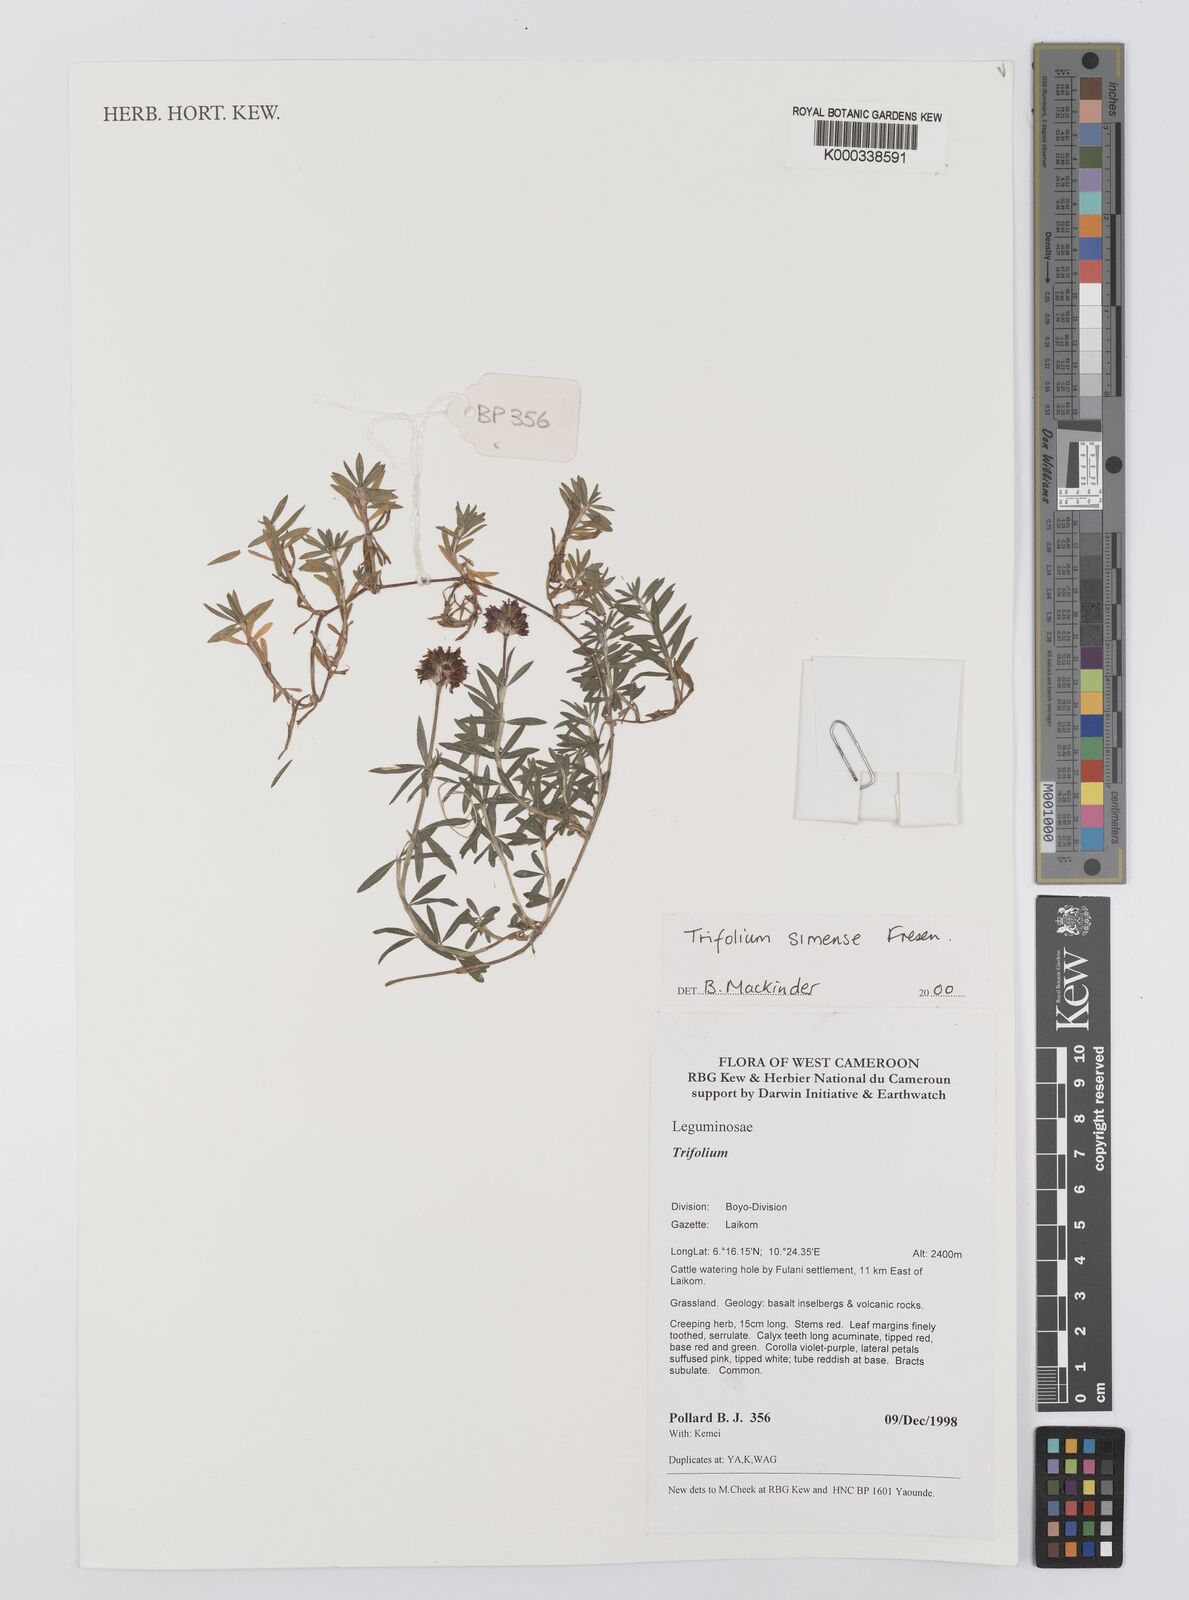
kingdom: Plantae
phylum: Tracheophyta
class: Magnoliopsida
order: Fabales
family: Fabaceae
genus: Trifolium
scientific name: Trifolium simense
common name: Simen clover
